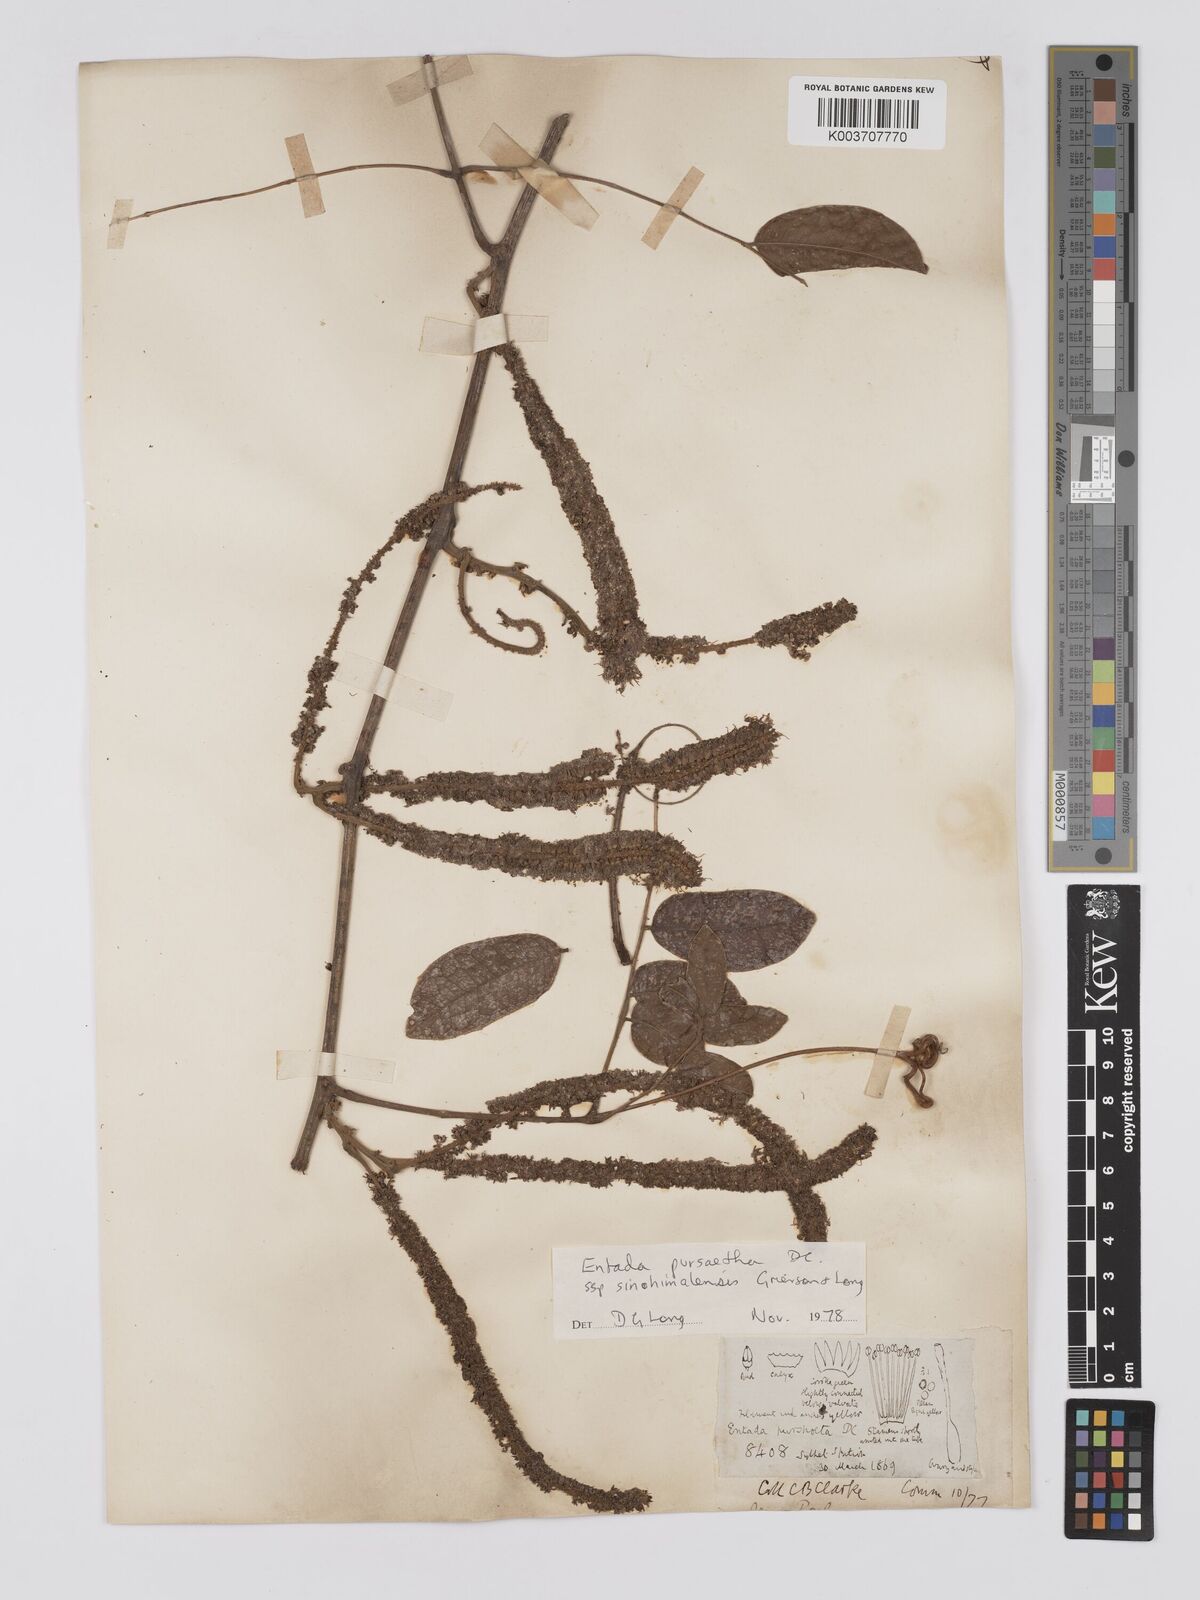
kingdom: Plantae
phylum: Tracheophyta
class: Magnoliopsida
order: Fabales
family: Fabaceae
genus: Entada
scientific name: Entada
